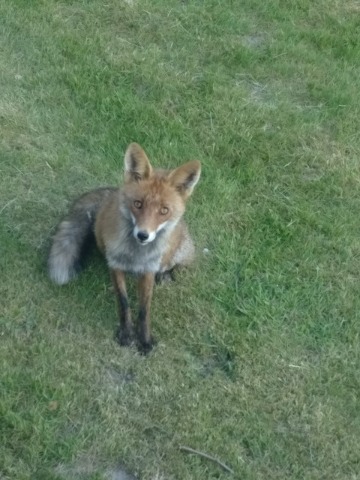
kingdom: Animalia
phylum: Chordata
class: Mammalia
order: Carnivora
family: Canidae
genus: Vulpes
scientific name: Vulpes vulpes
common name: Ræv
